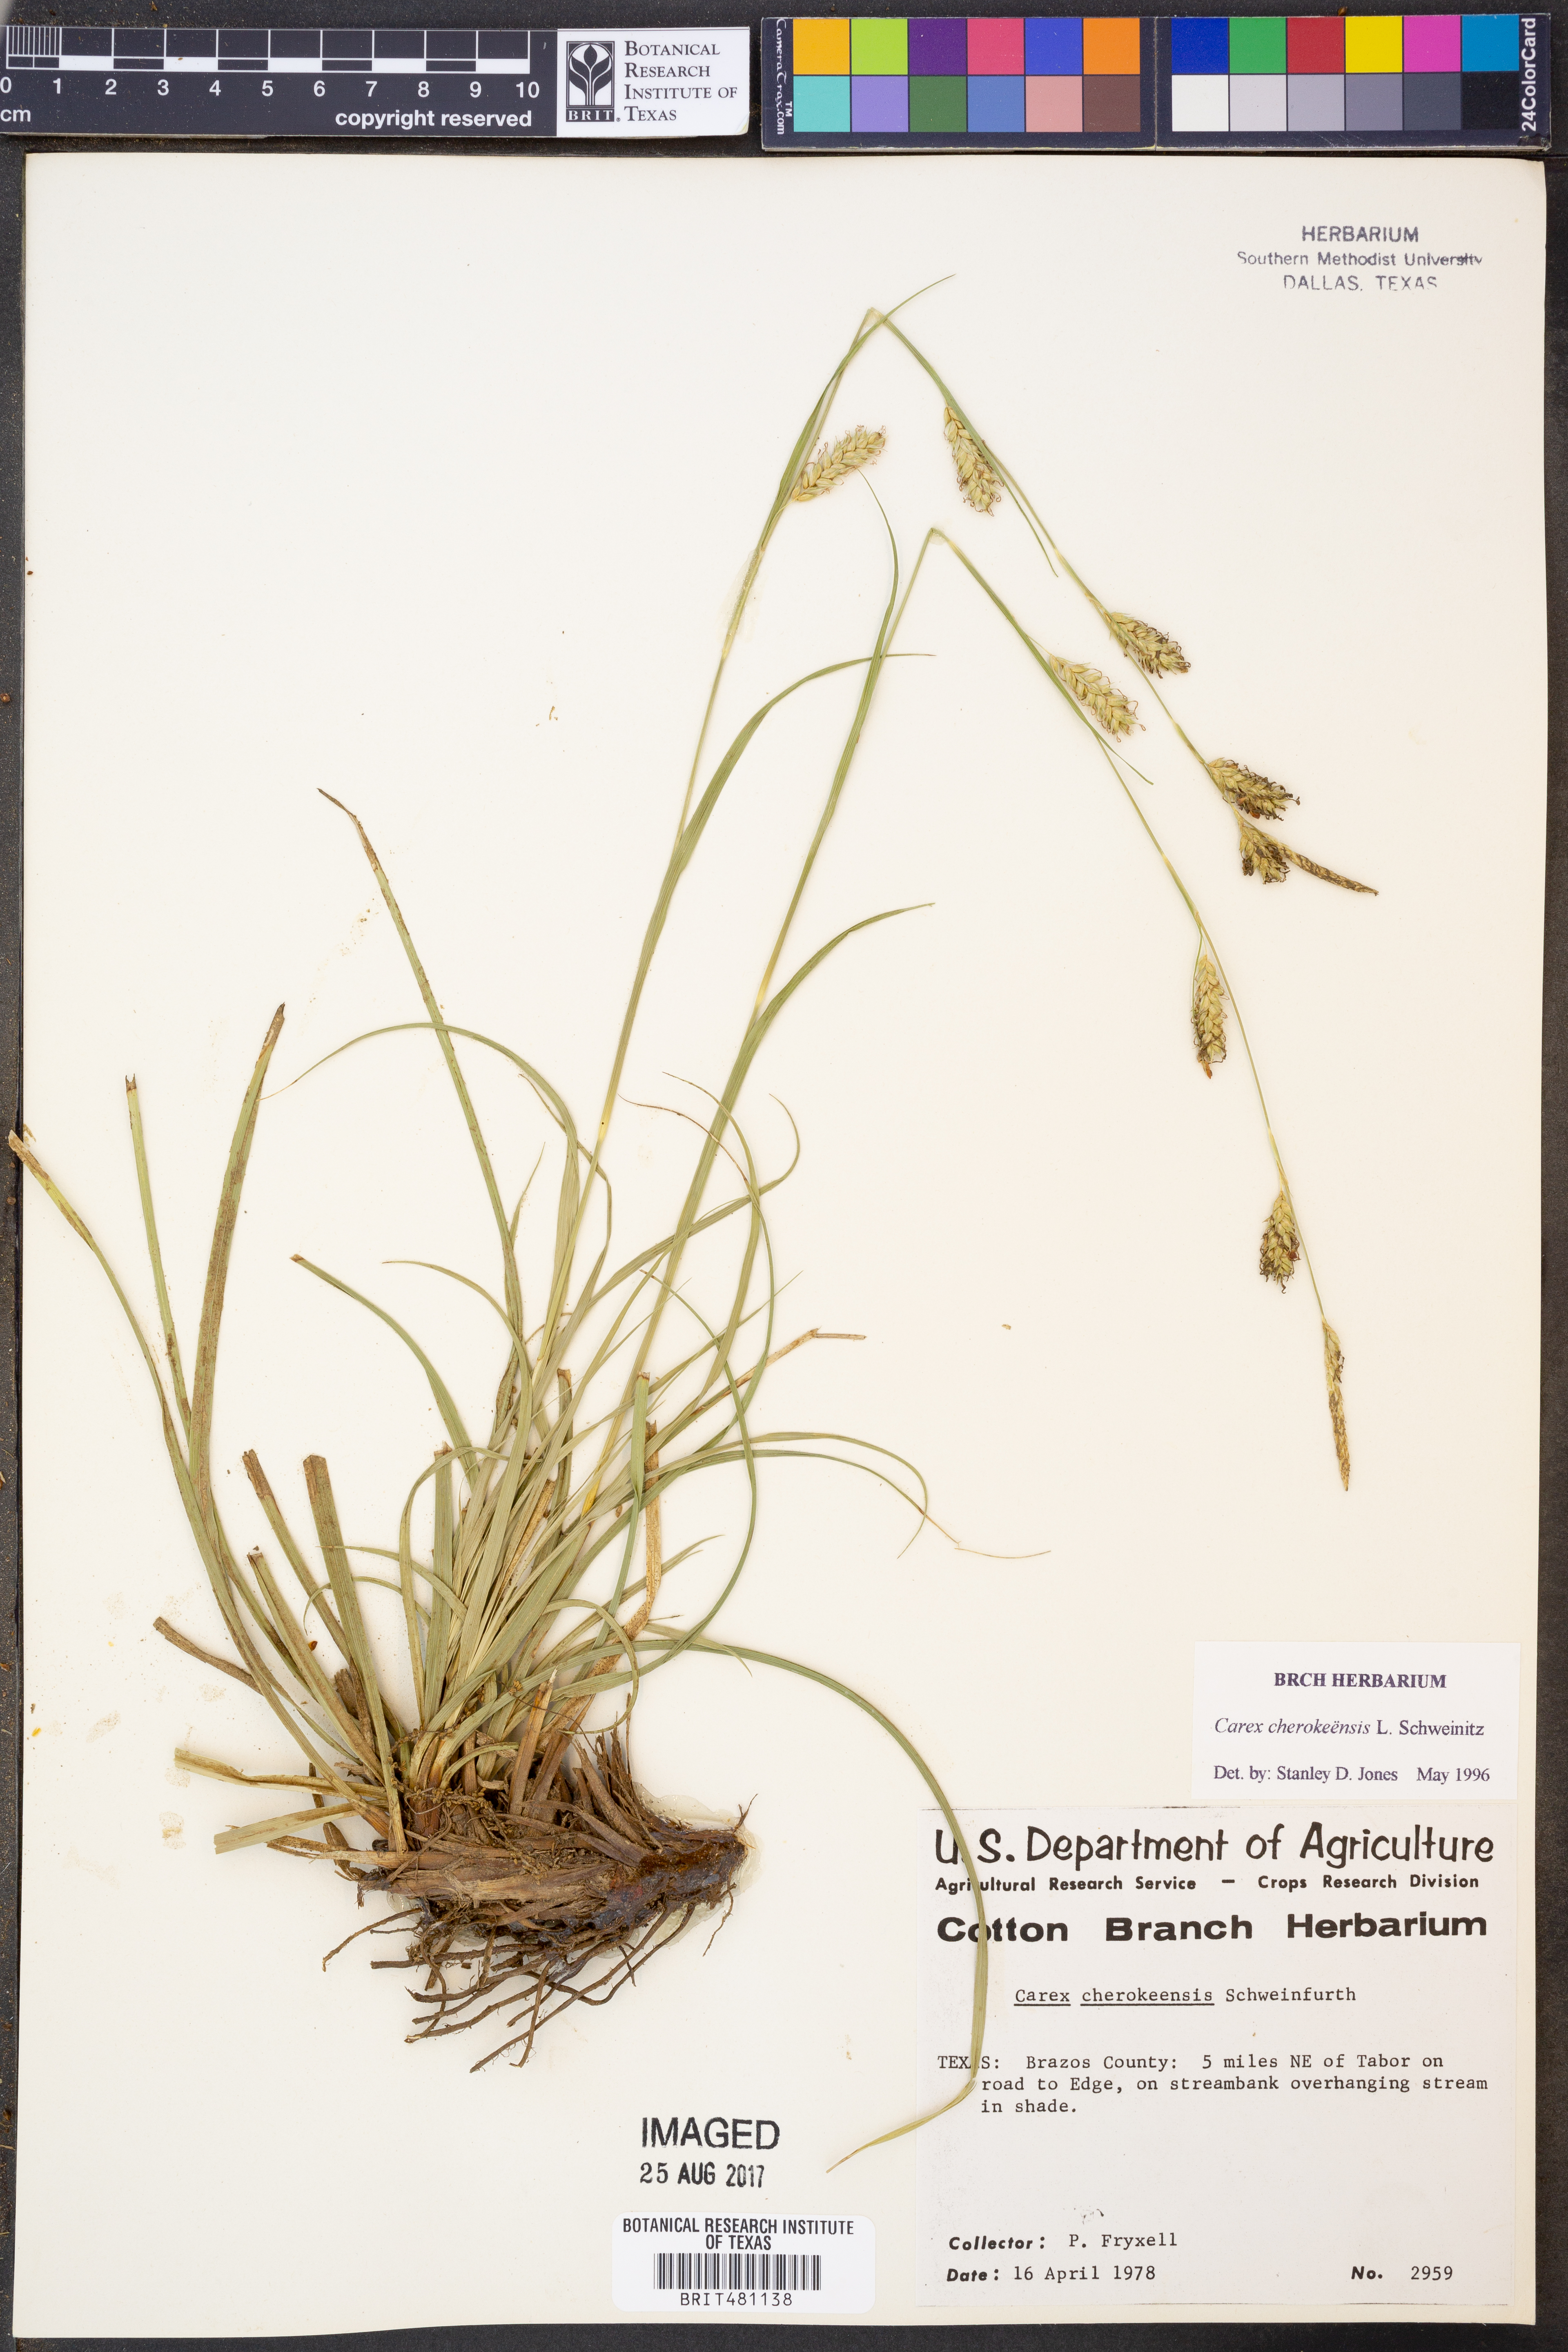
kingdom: Plantae
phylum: Tracheophyta
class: Liliopsida
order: Poales
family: Cyperaceae
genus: Carex
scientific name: Carex cherokeensis
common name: Cherokee sedge
